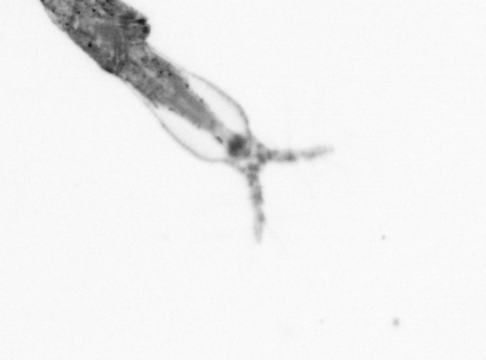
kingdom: Animalia
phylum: Arthropoda
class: Copepoda
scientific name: Copepoda
